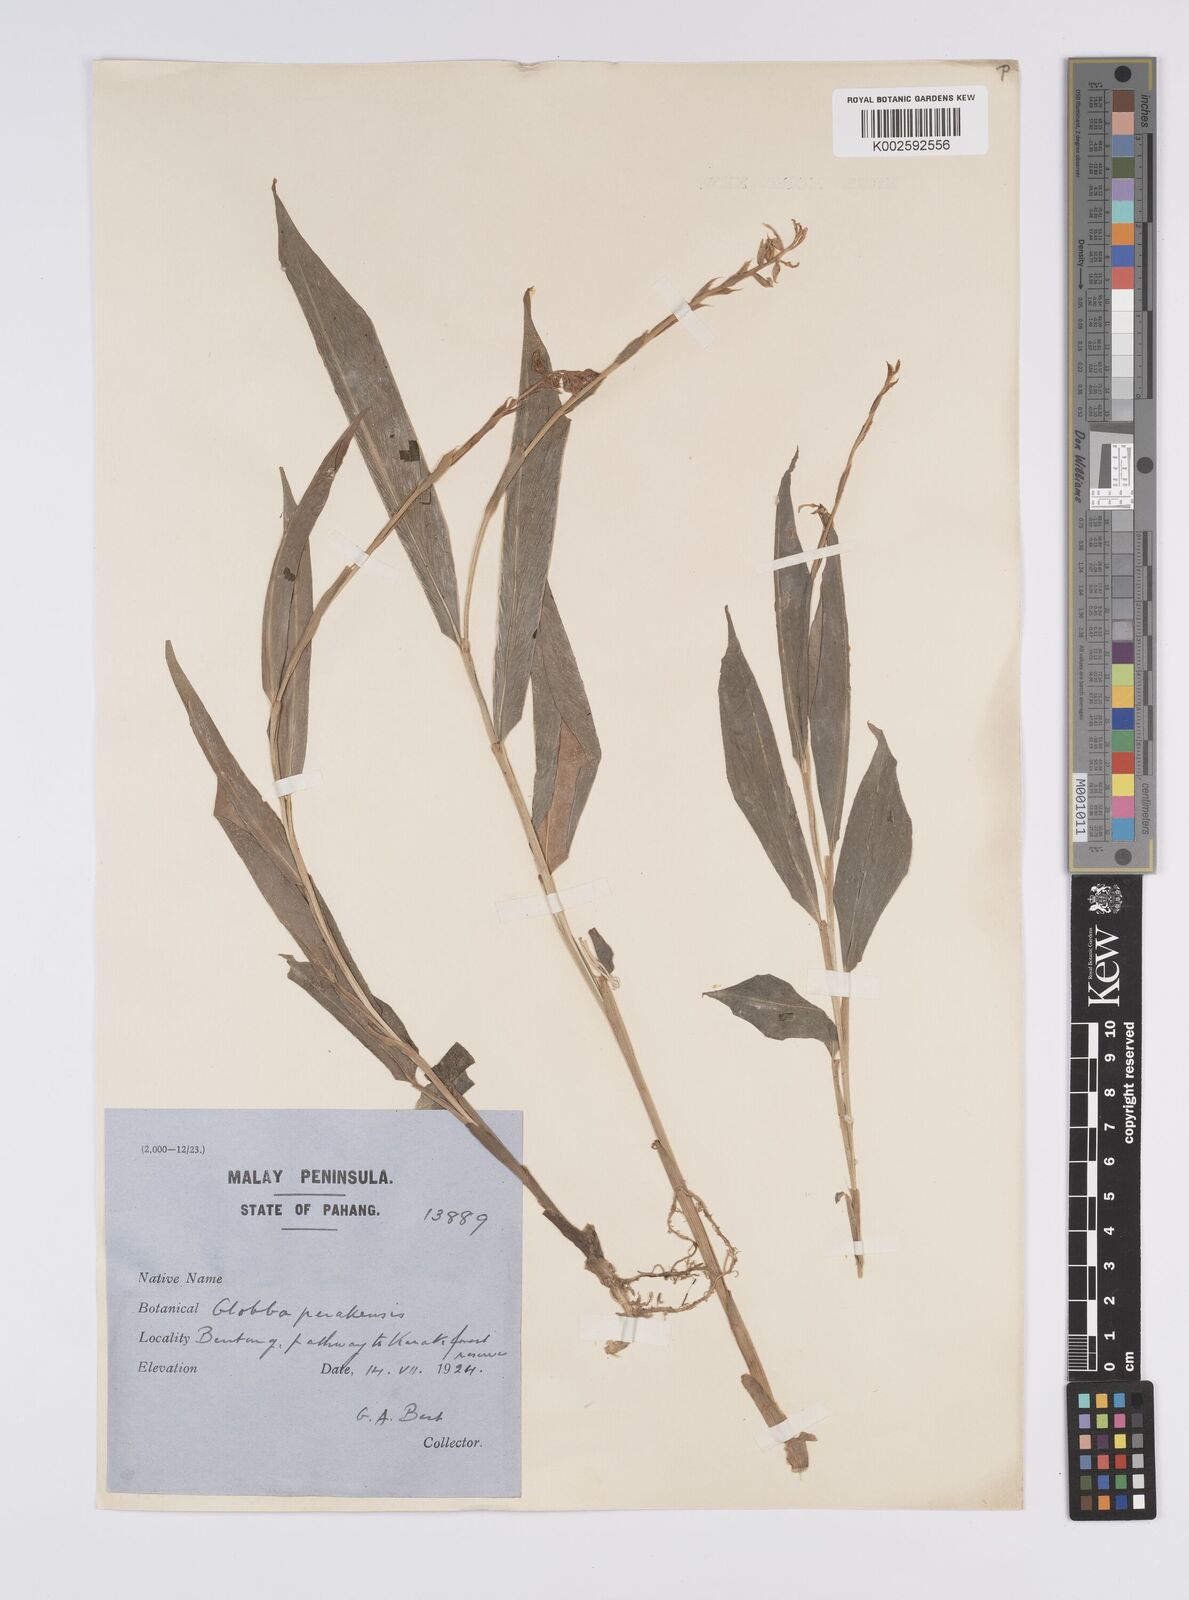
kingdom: Plantae
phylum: Tracheophyta
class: Liliopsida
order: Zingiberales
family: Zingiberaceae
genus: Globba
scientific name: Globba variabilis
